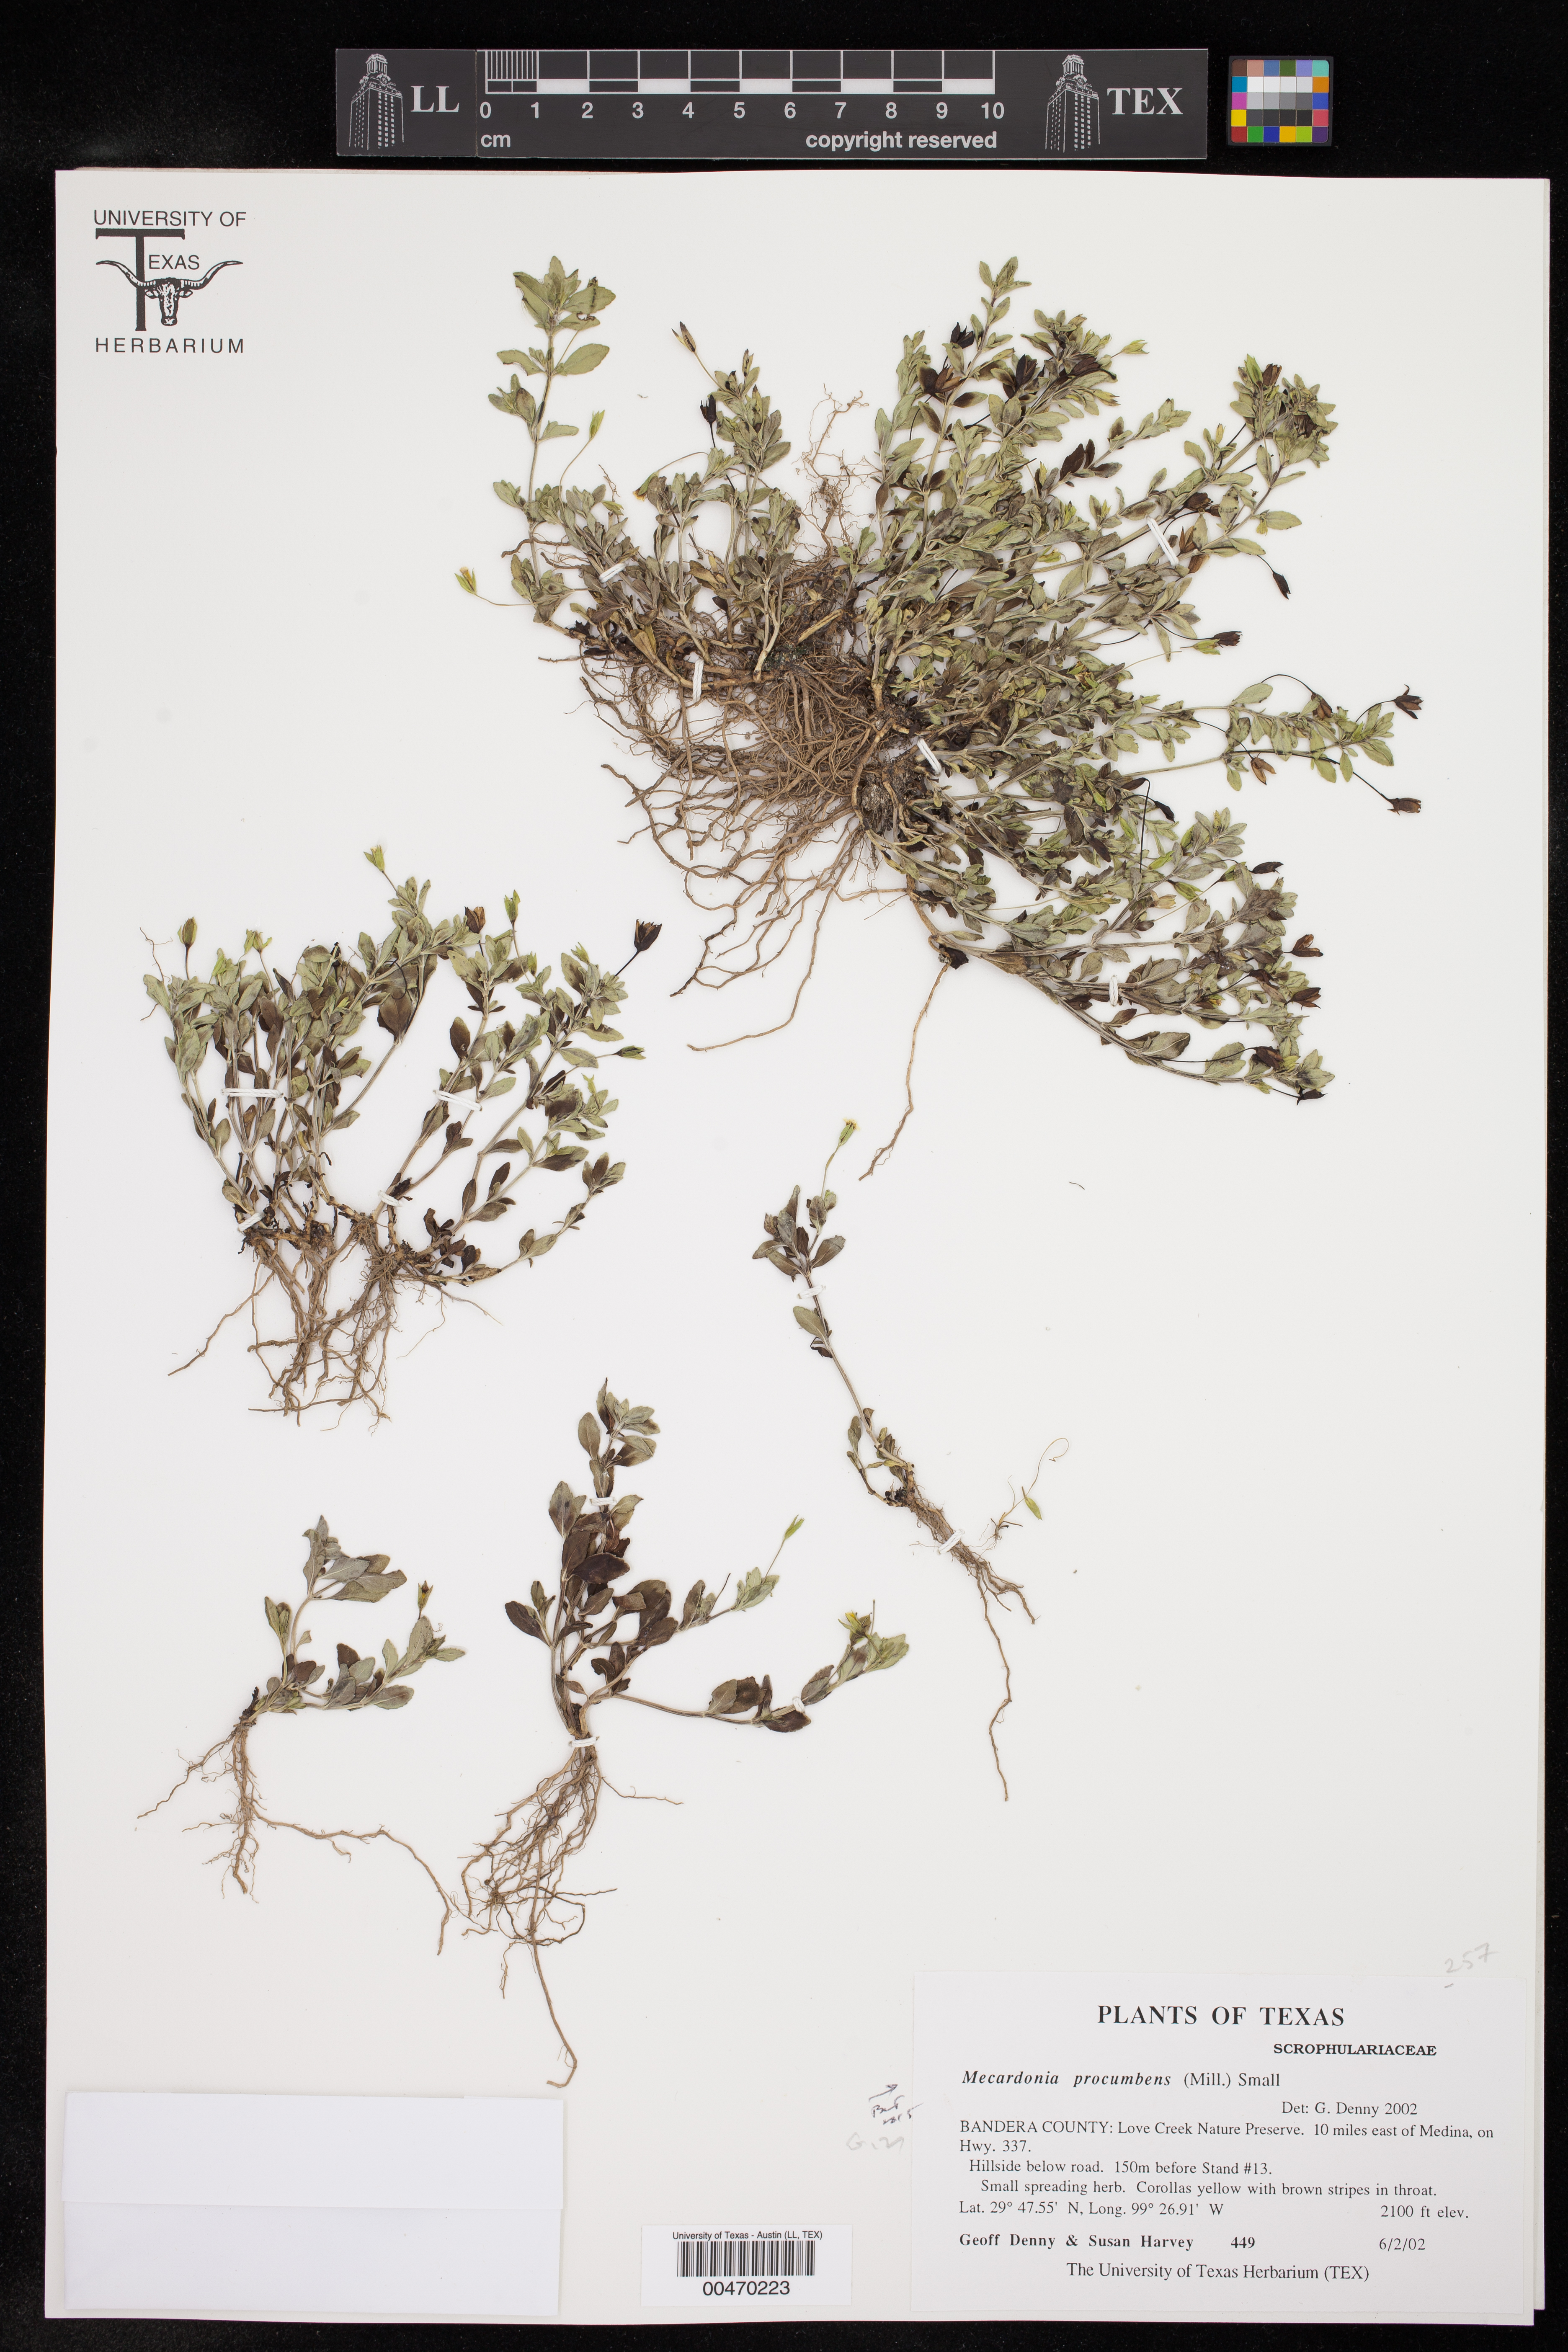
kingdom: Plantae
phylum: Tracheophyta
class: Magnoliopsida
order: Lamiales
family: Plantaginaceae
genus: Mecardonia
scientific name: Mecardonia procumbens
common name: Baby jump-up
